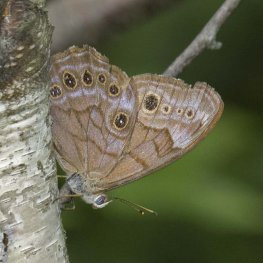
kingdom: Animalia
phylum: Arthropoda
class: Insecta
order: Lepidoptera
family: Nymphalidae
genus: Lethe
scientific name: Lethe anthedon
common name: Northern Pearly-Eye
